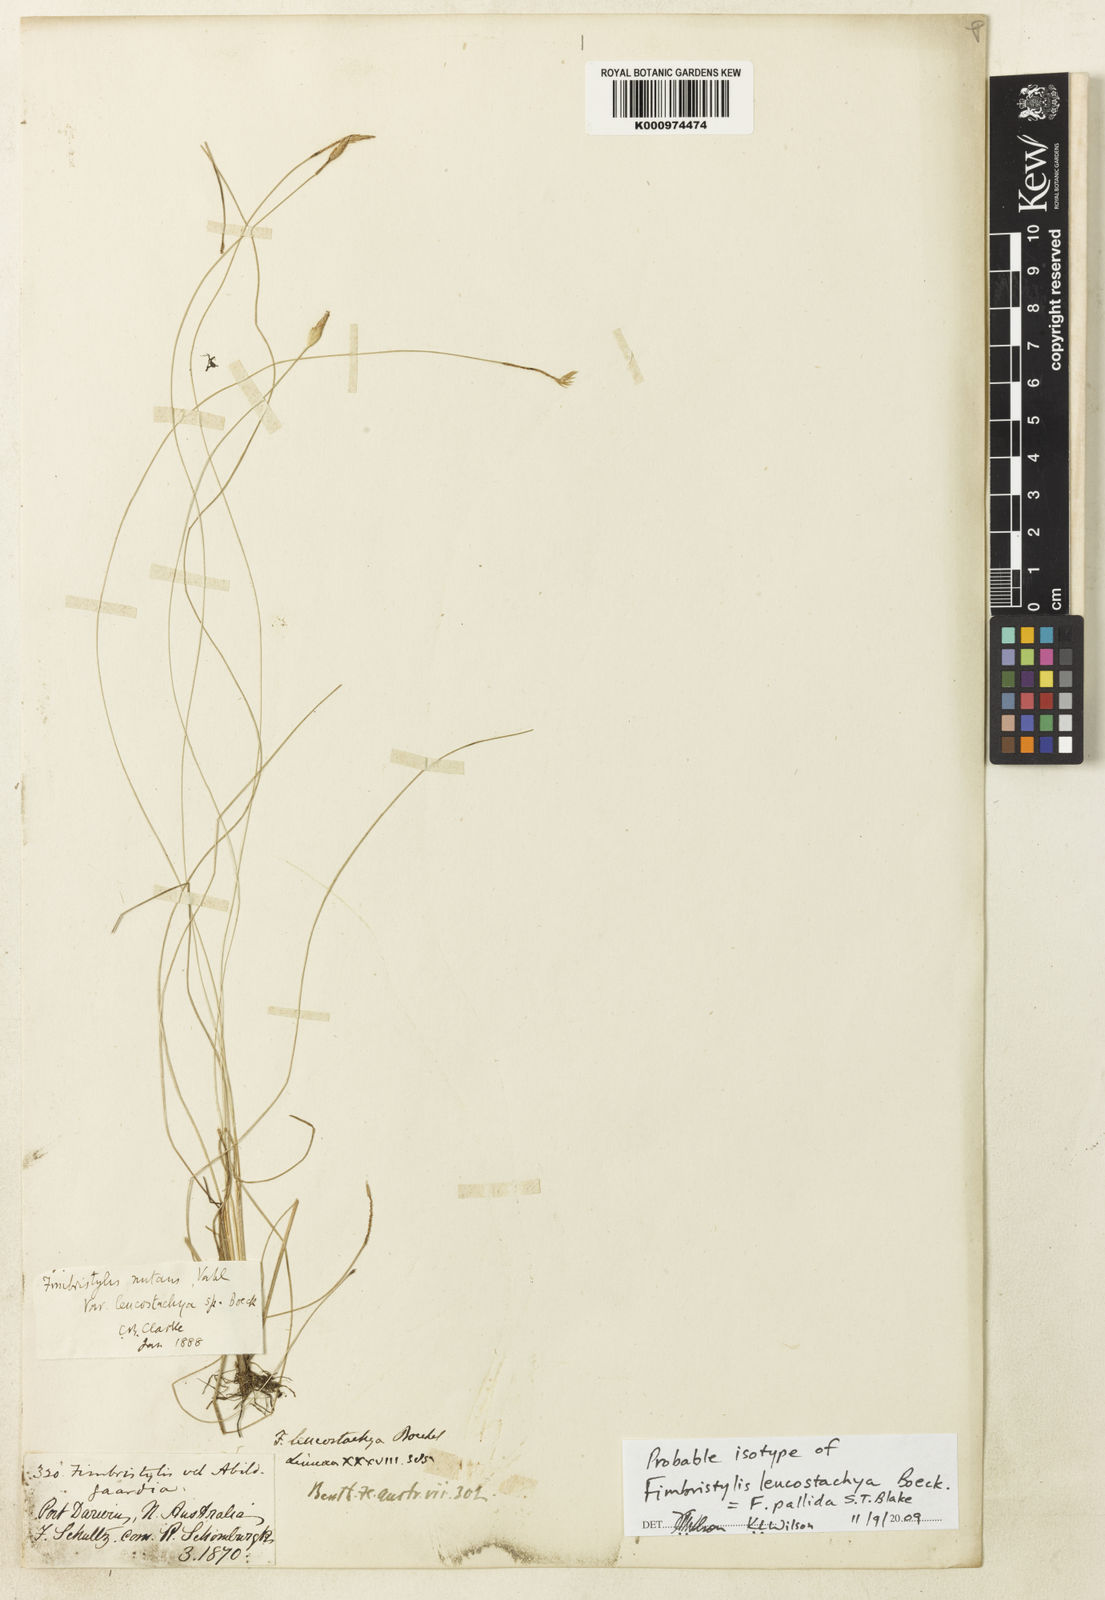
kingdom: Plantae
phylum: Tracheophyta
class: Liliopsida
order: Poales
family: Cyperaceae
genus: Fimbristylis
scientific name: Fimbristylis pallida
